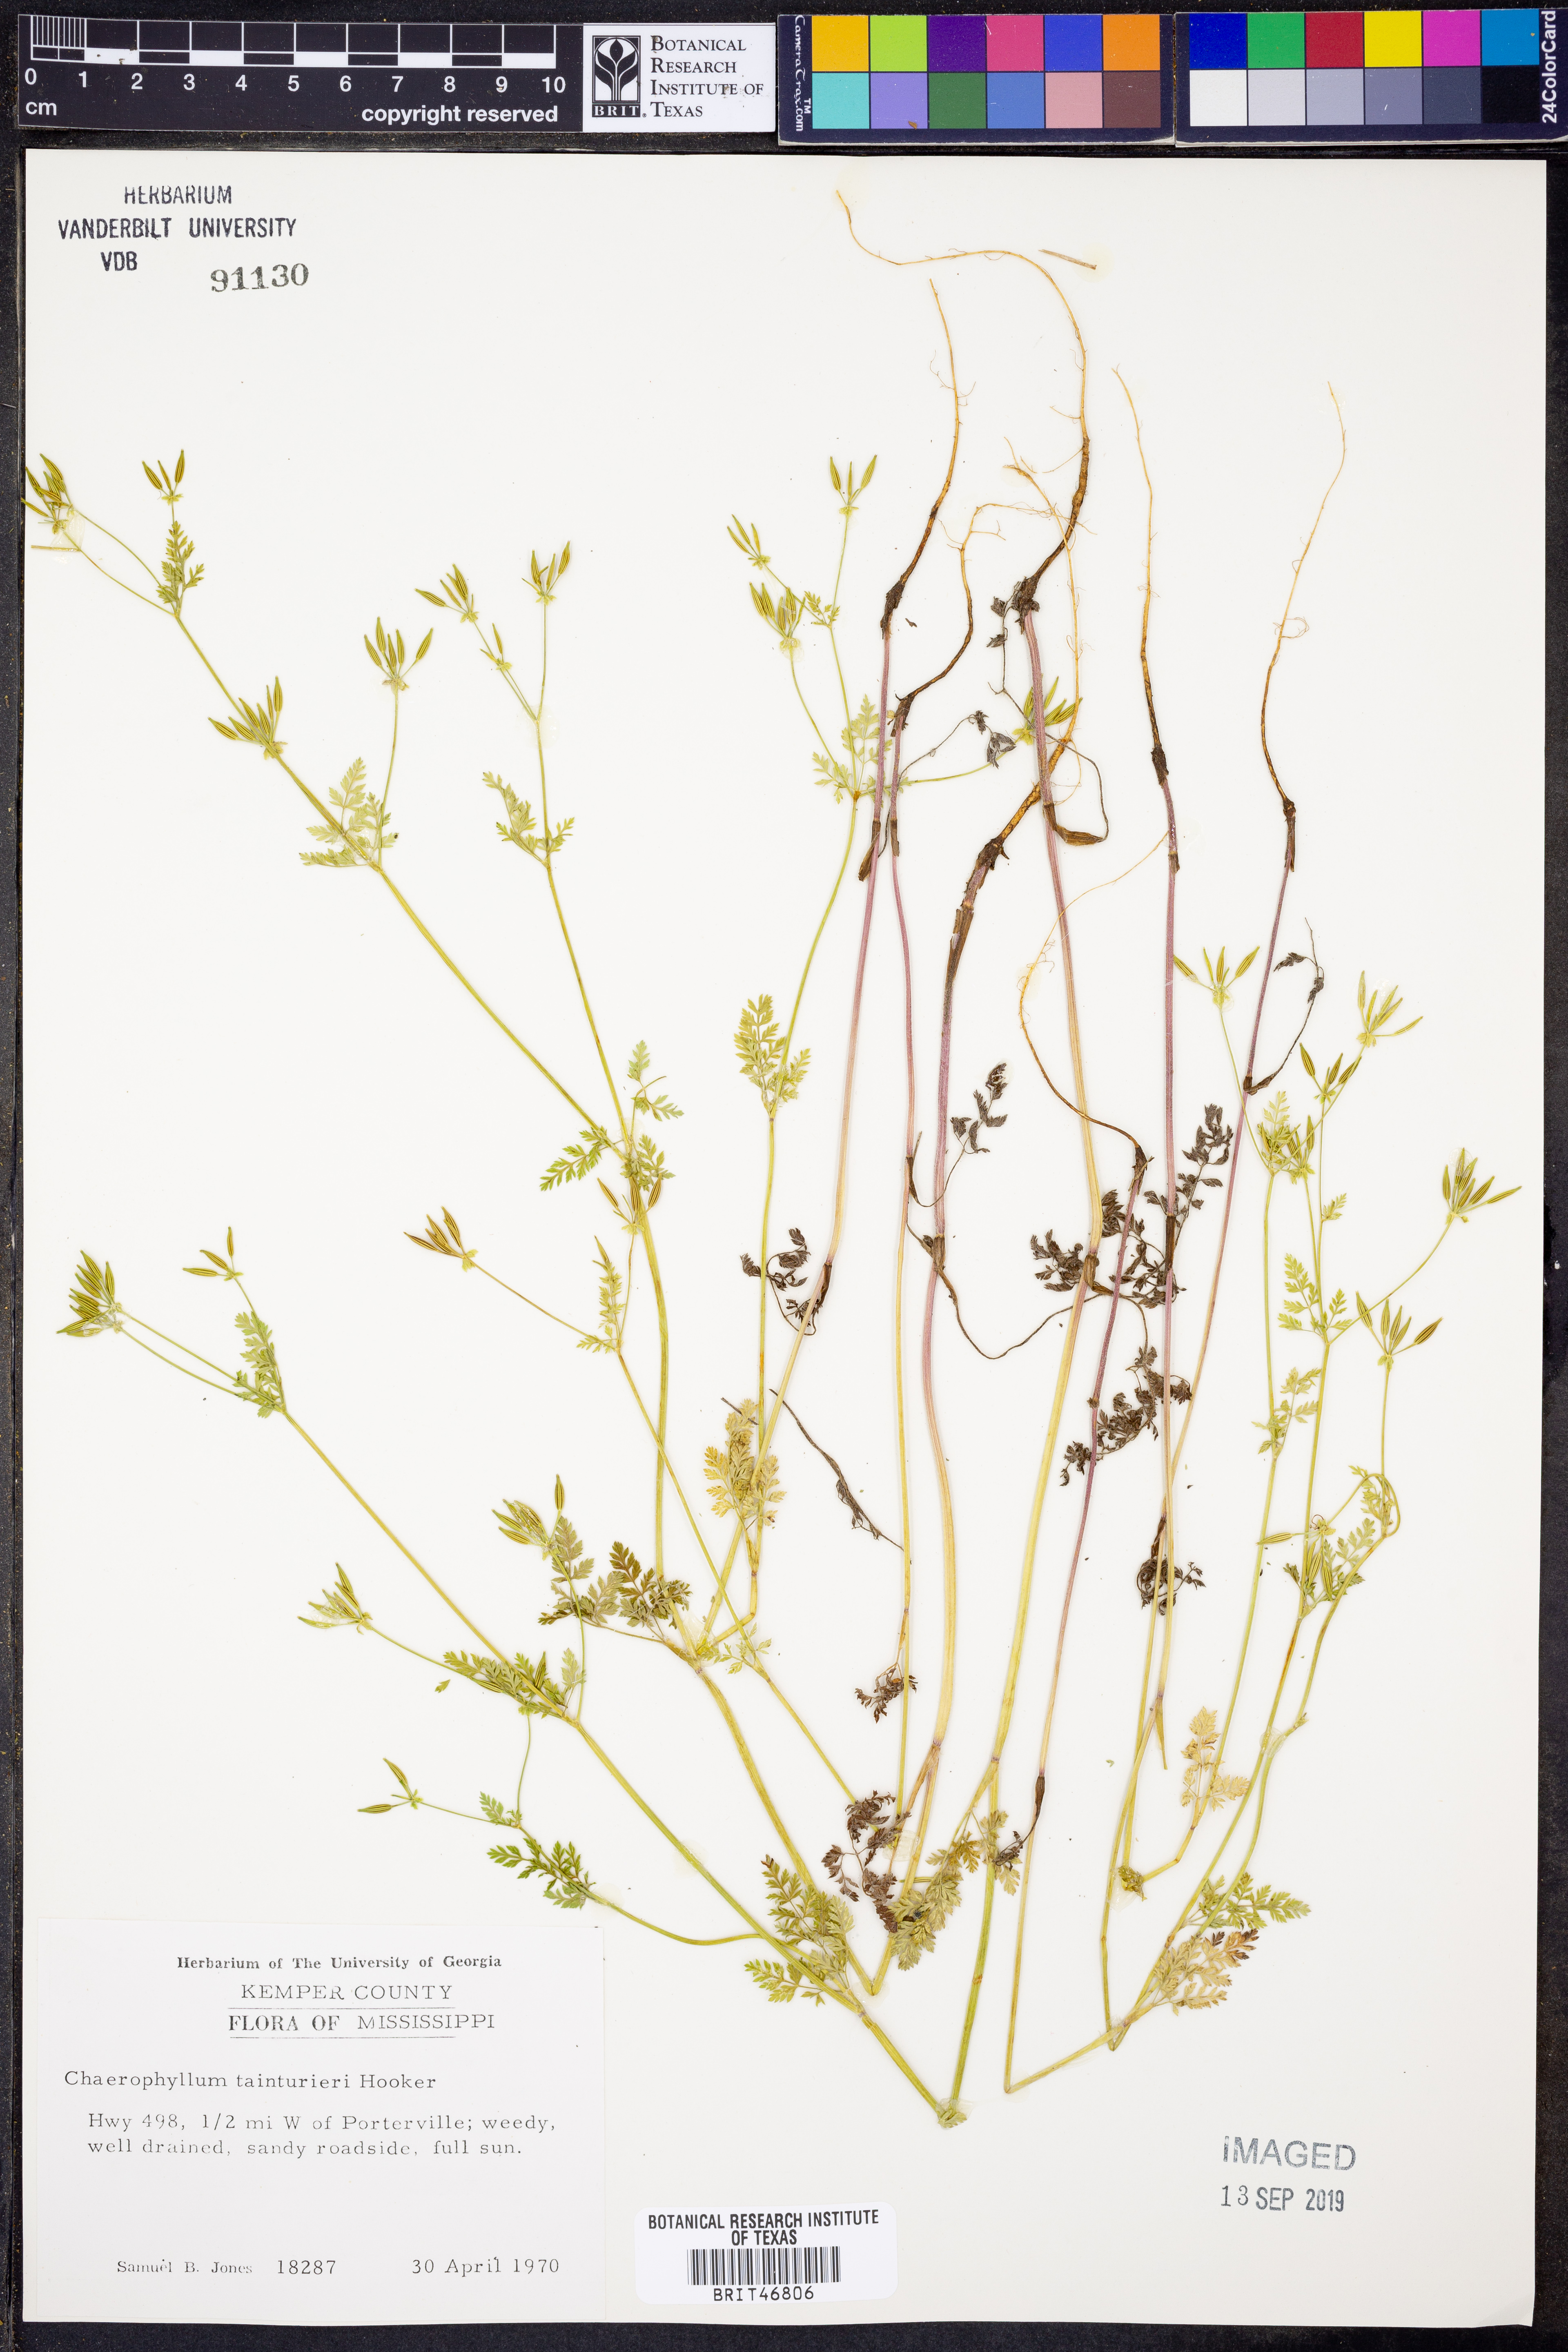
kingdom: Plantae
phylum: Tracheophyta
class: Magnoliopsida
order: Apiales
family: Apiaceae
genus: Chaerophyllum
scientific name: Chaerophyllum tainturieri
